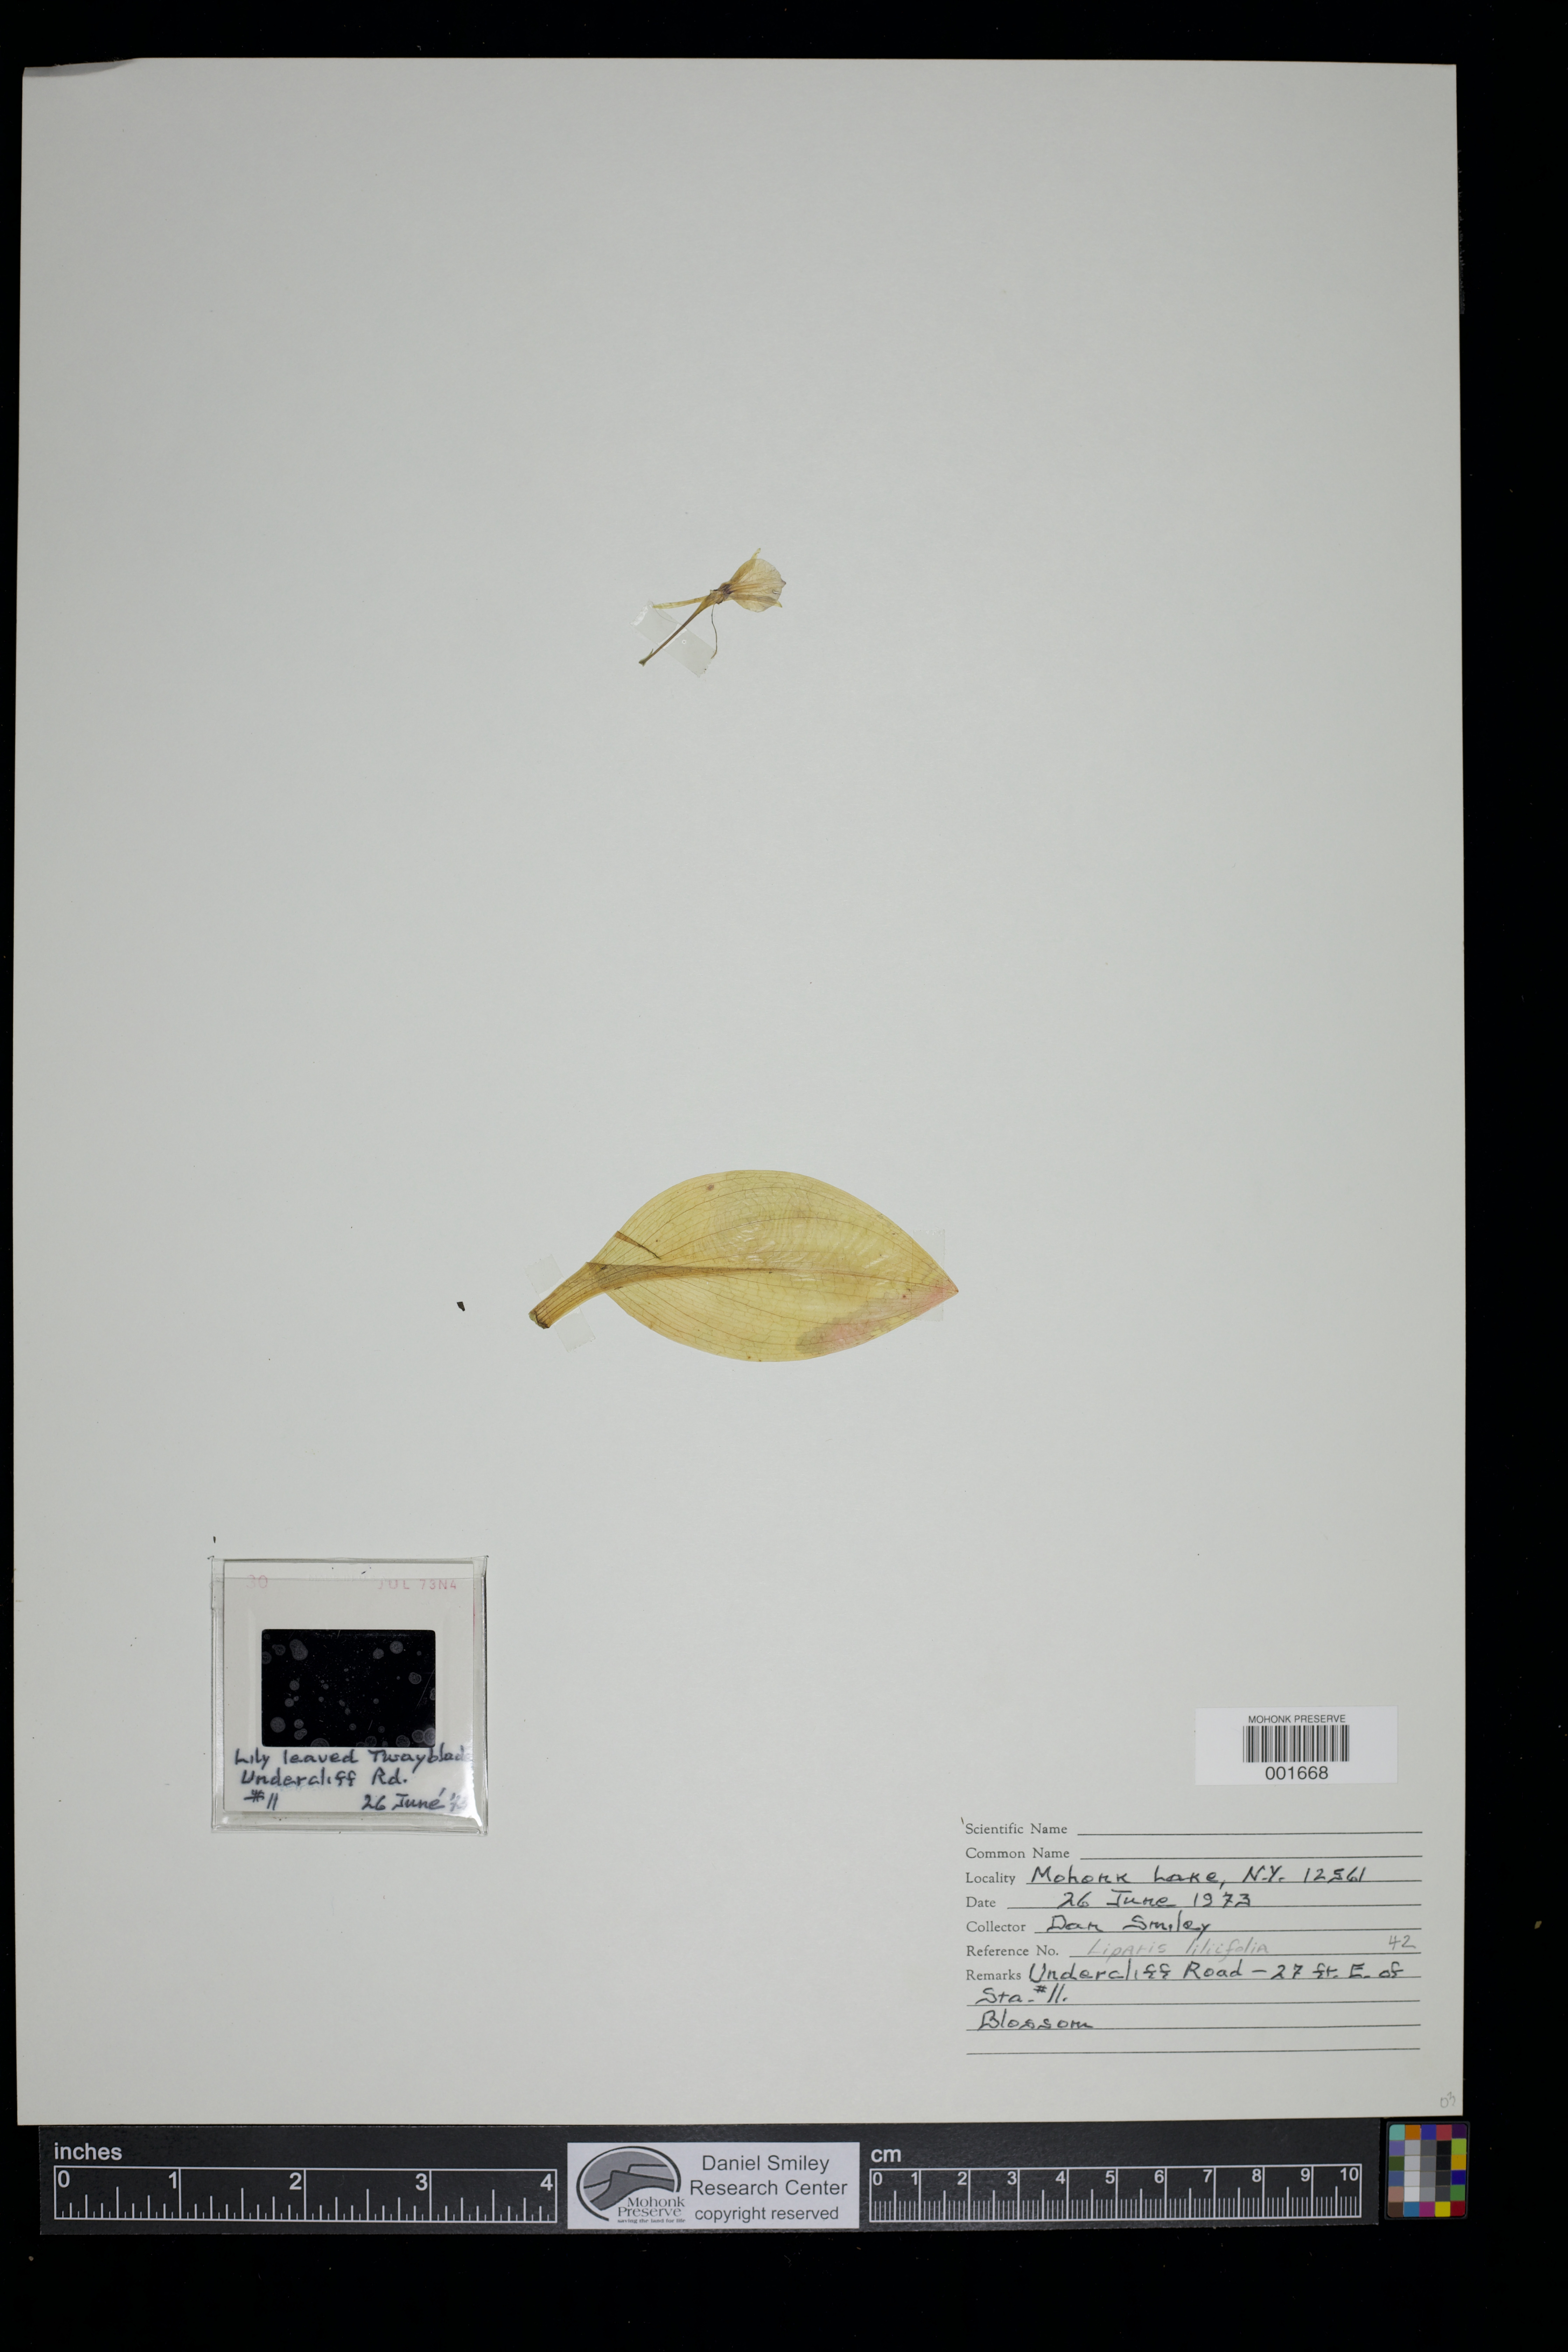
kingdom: Plantae
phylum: Tracheophyta
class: Liliopsida
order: Asparagales
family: Orchidaceae
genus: Liparis
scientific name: Liparis liliifolia
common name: Brown wide-lip orchid
